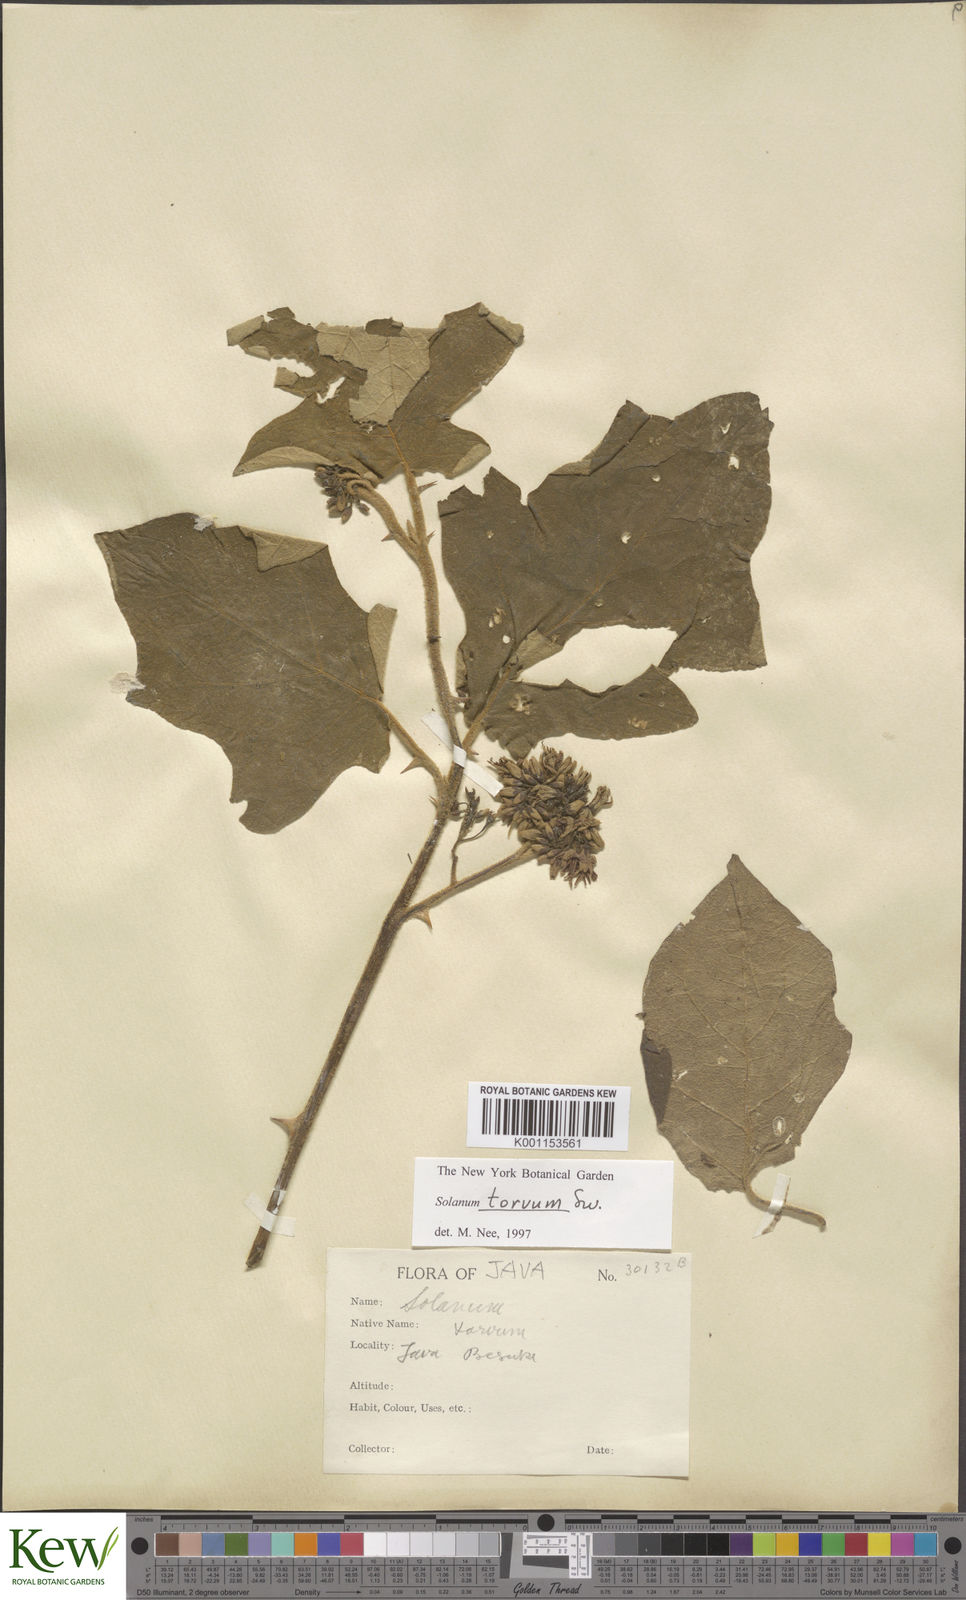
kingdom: Plantae
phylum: Tracheophyta
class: Magnoliopsida
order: Solanales
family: Solanaceae
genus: Solanum
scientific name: Solanum torvum
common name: Turkey berry
